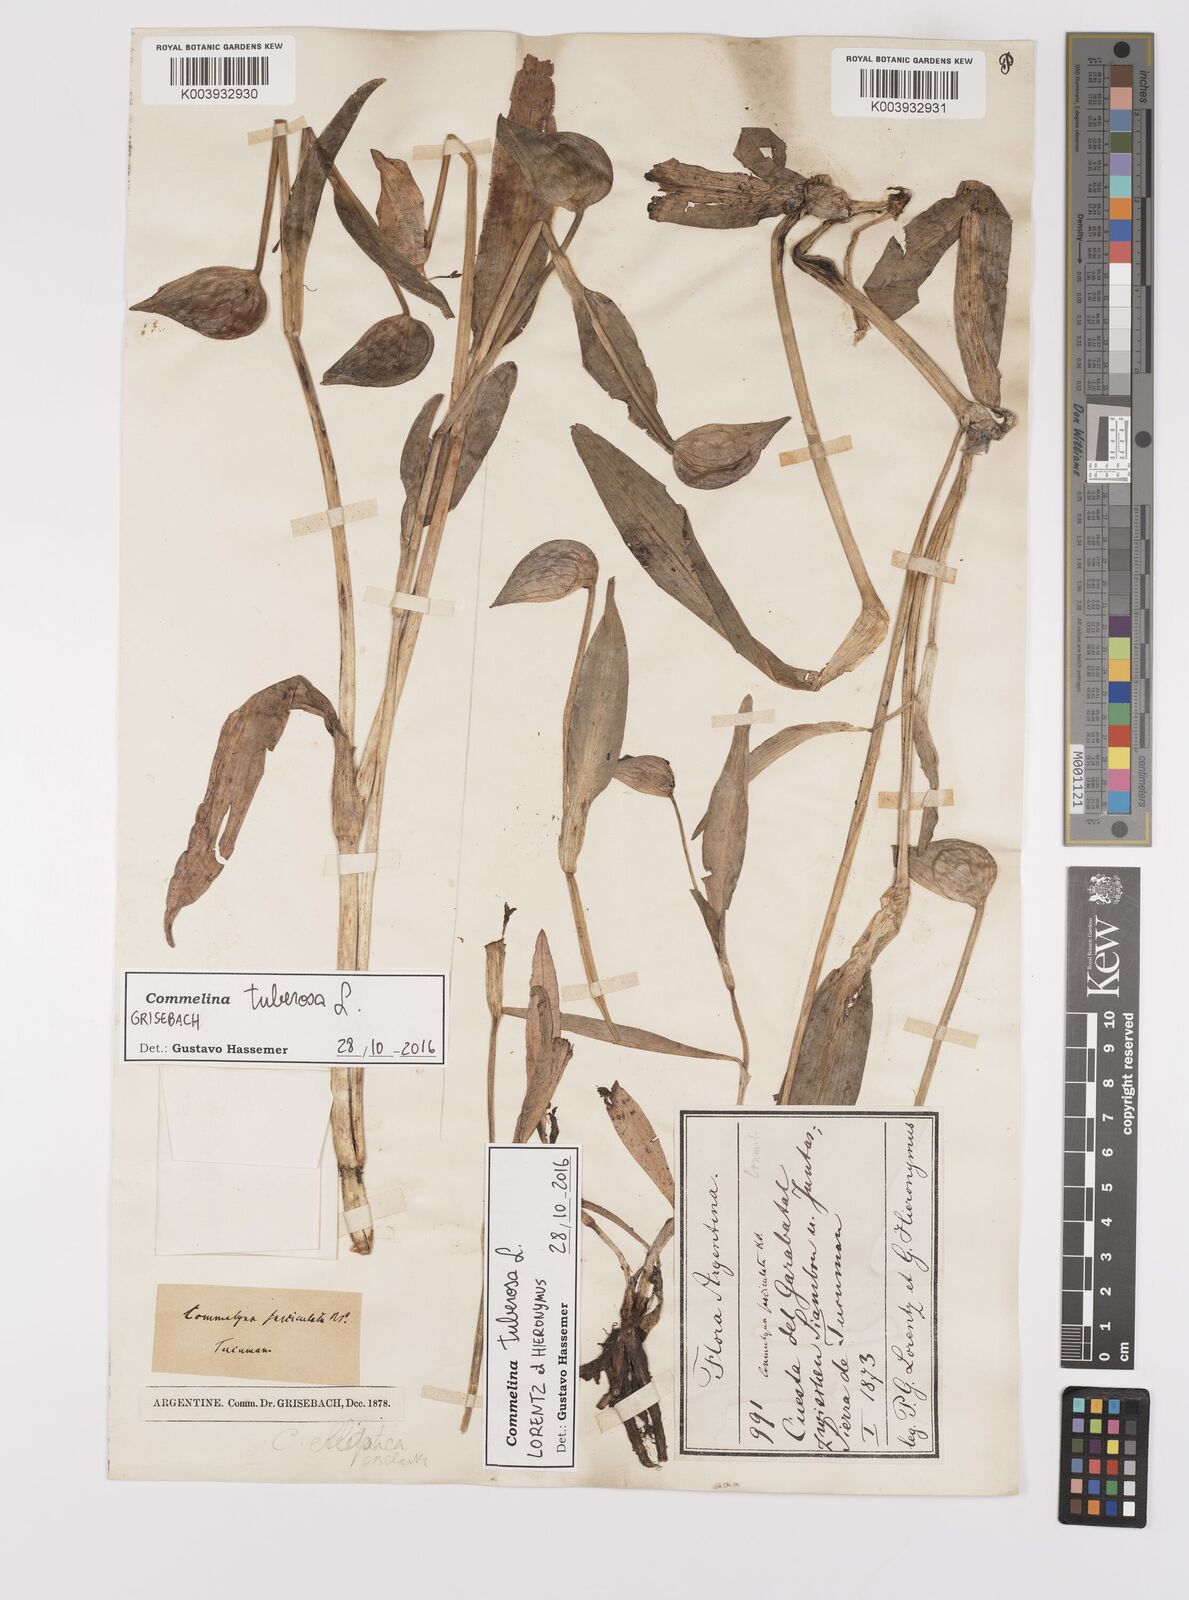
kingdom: Plantae
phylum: Tracheophyta
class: Liliopsida
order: Commelinales
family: Commelinaceae
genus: Commelina
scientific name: Commelina tuberosa
